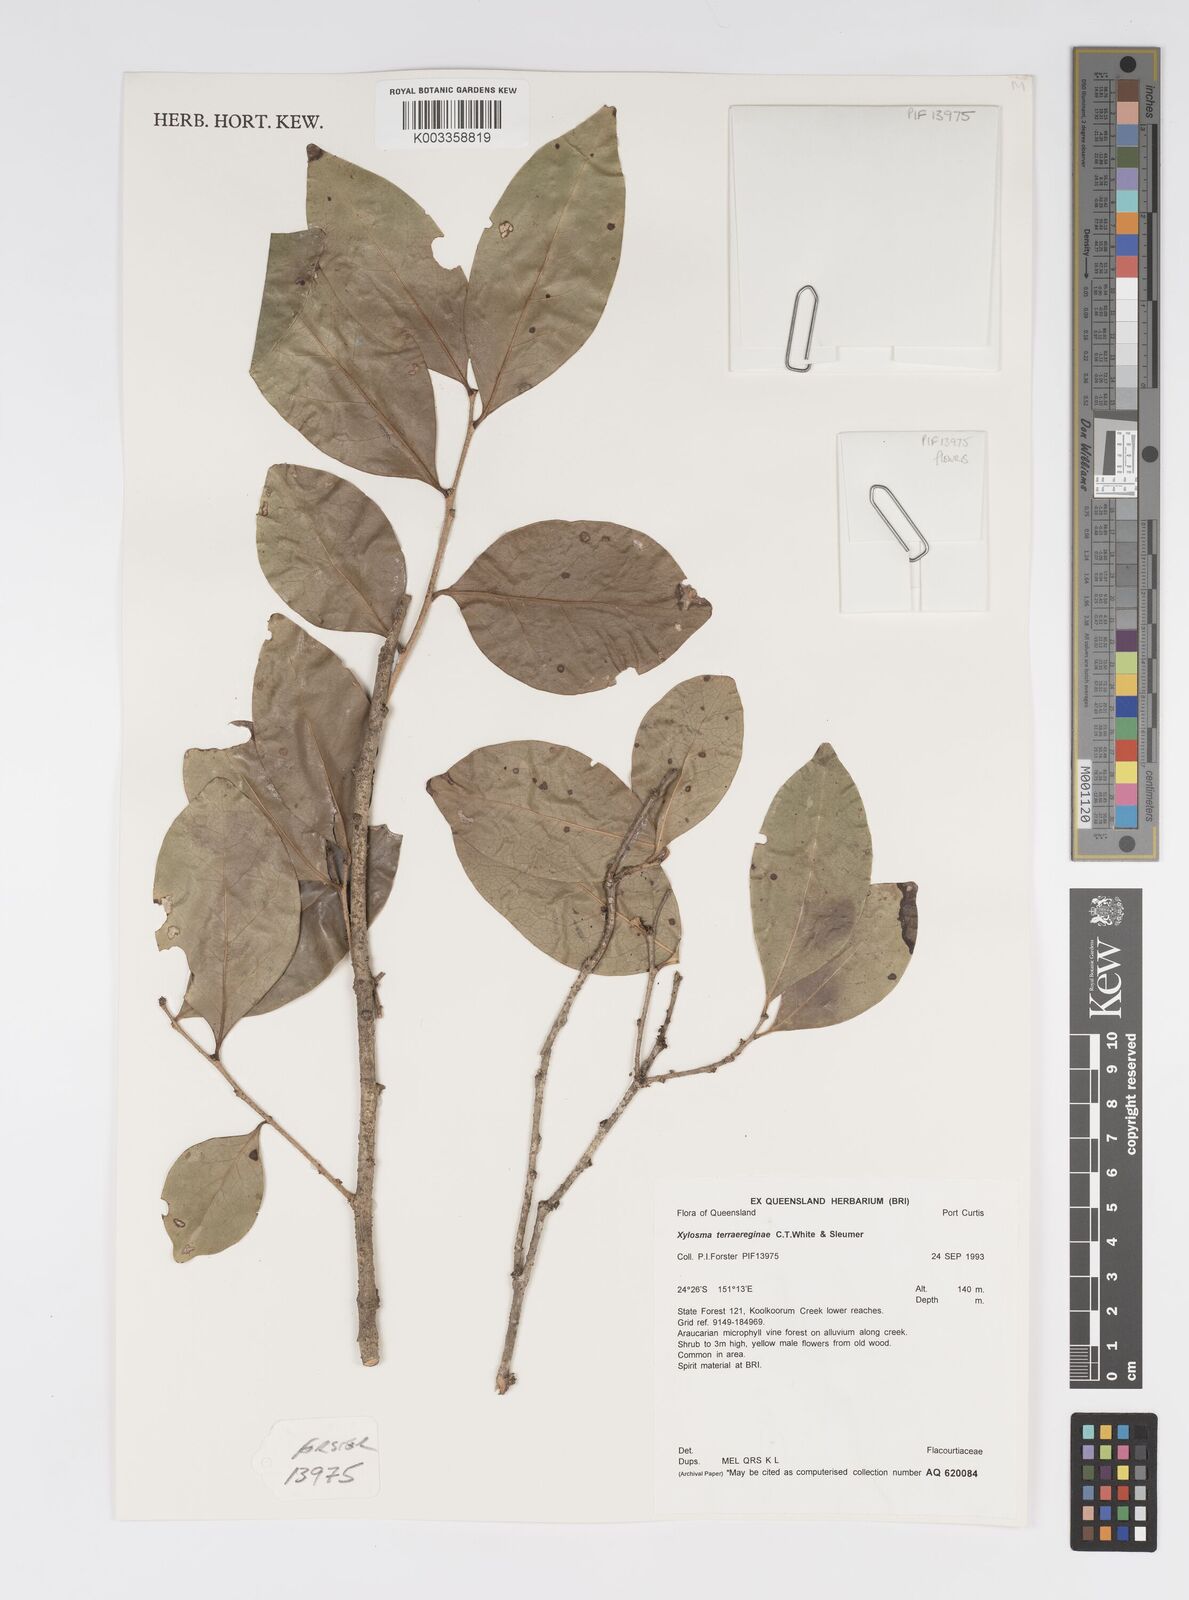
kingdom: Plantae
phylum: Tracheophyta
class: Magnoliopsida
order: Malpighiales
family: Salicaceae
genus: Xylosma
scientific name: Xylosma terrae-reginae
